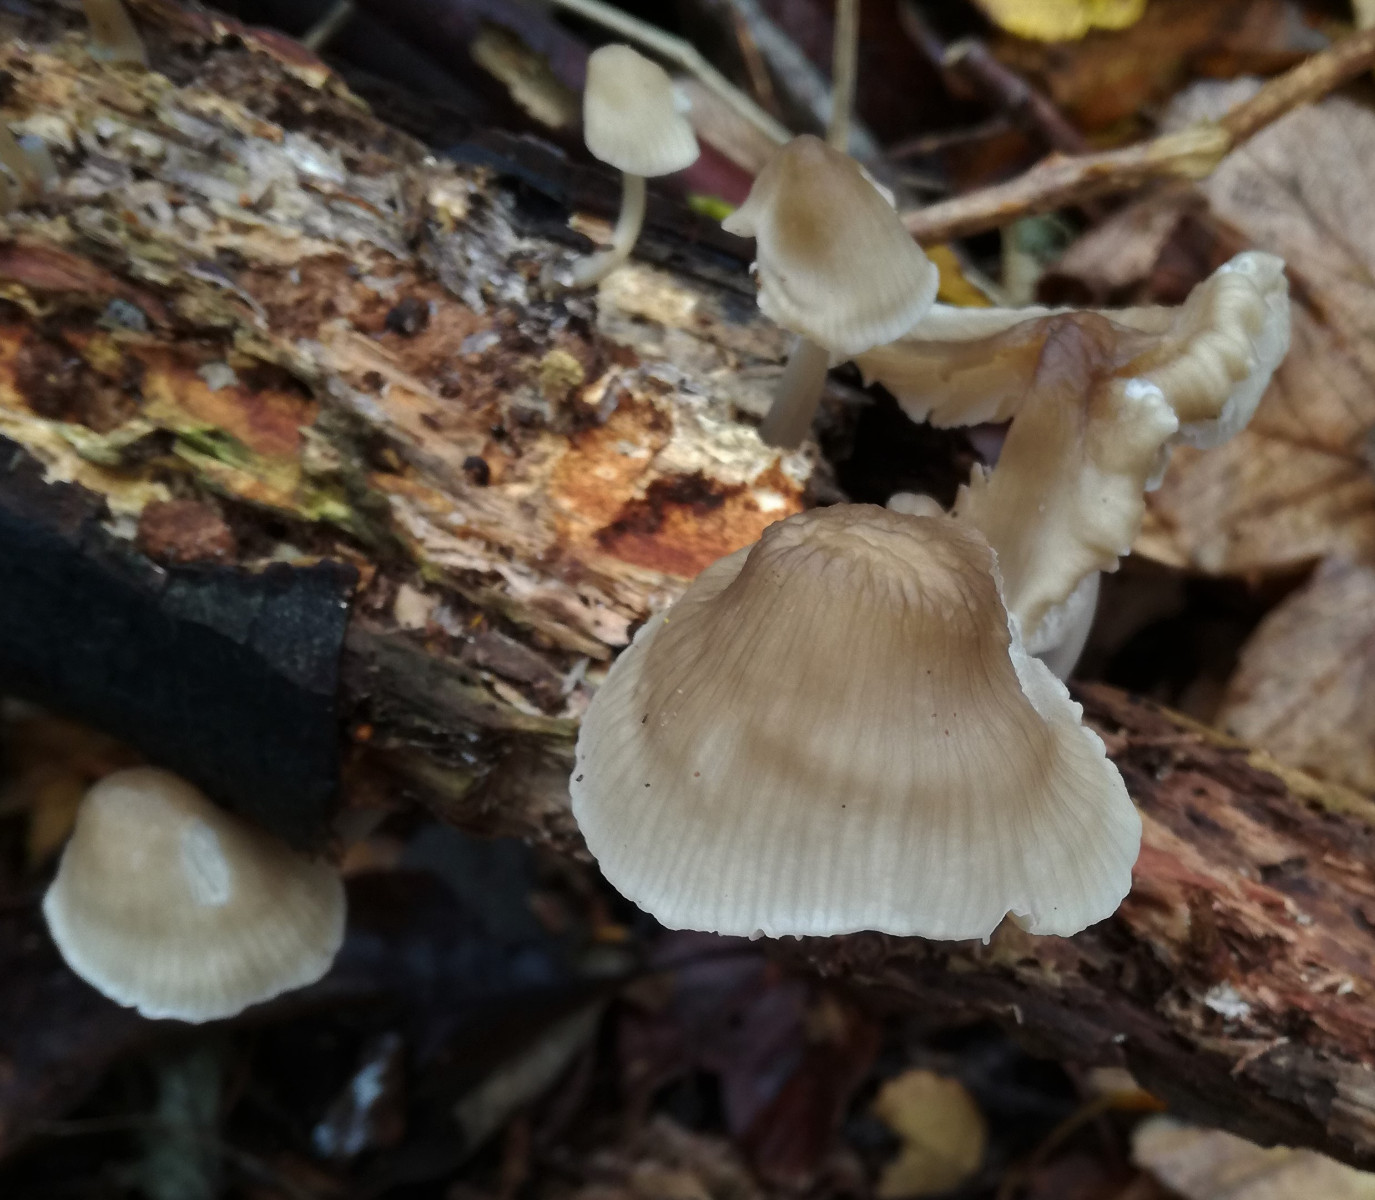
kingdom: Fungi
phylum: Basidiomycota
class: Agaricomycetes
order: Agaricales
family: Mycenaceae
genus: Mycena
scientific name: Mycena galericulata
